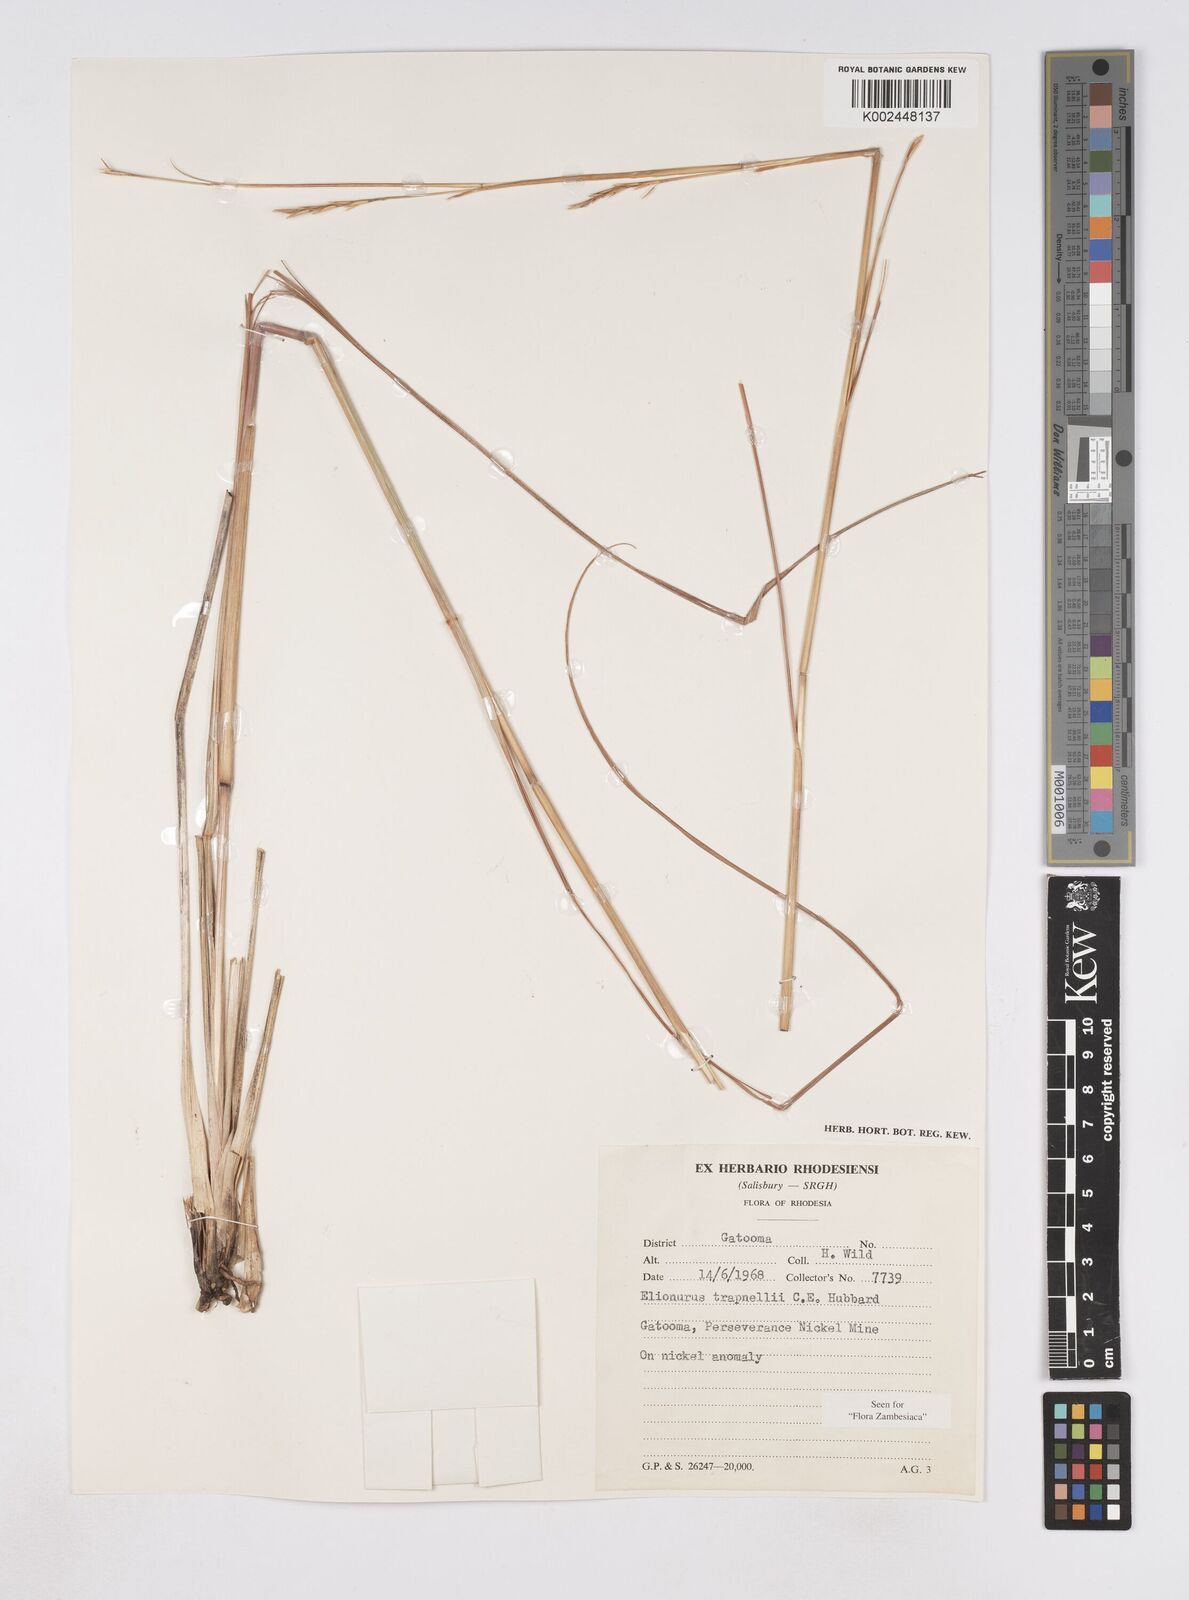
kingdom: Plantae
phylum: Tracheophyta
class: Liliopsida
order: Poales
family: Poaceae
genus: Elionurus
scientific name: Elionurus tripsacoides
